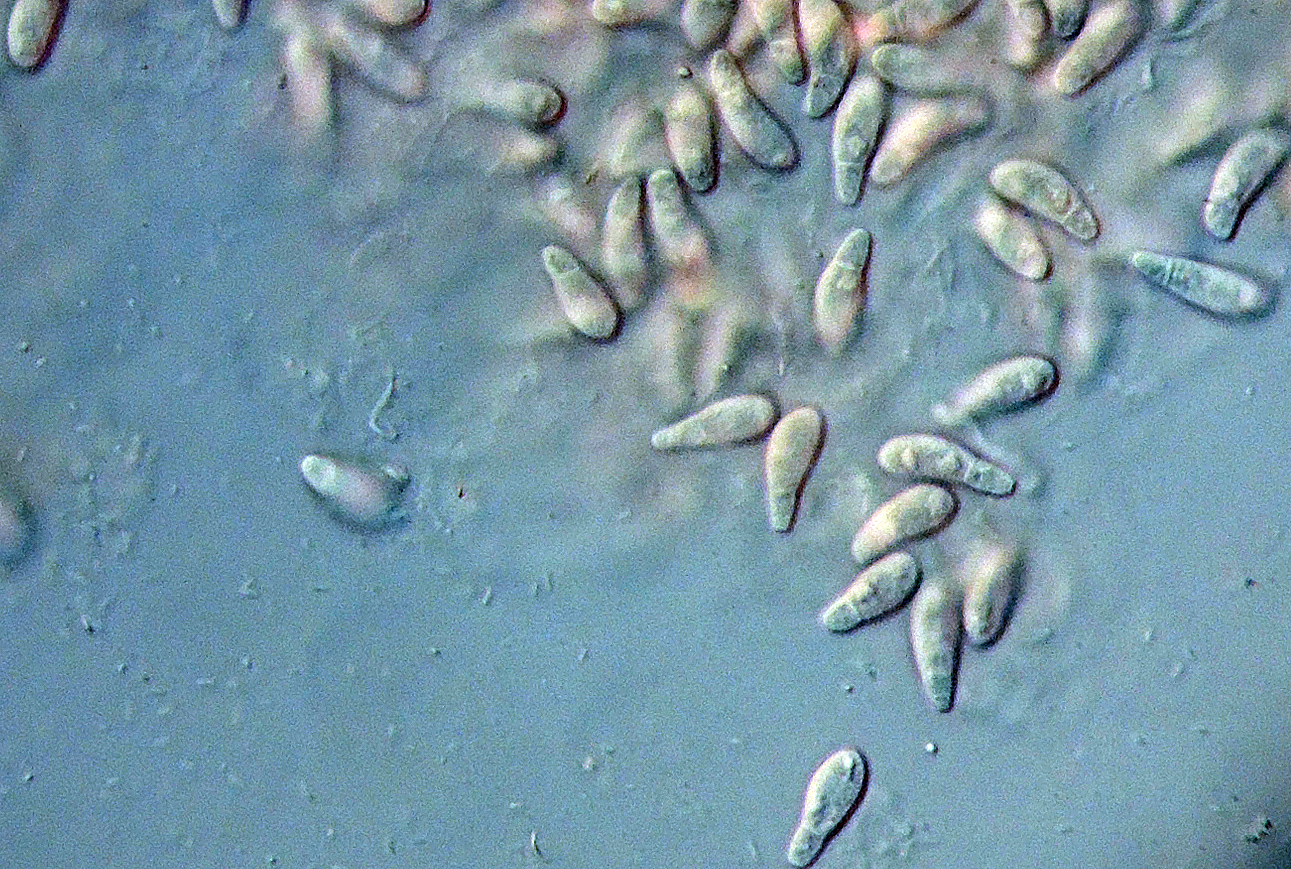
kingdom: Fungi
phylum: Ascomycota
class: Leotiomycetes
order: Helotiales
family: Drepanopezizaceae
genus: Drepanopeziza
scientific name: Drepanopeziza sphaerioides
